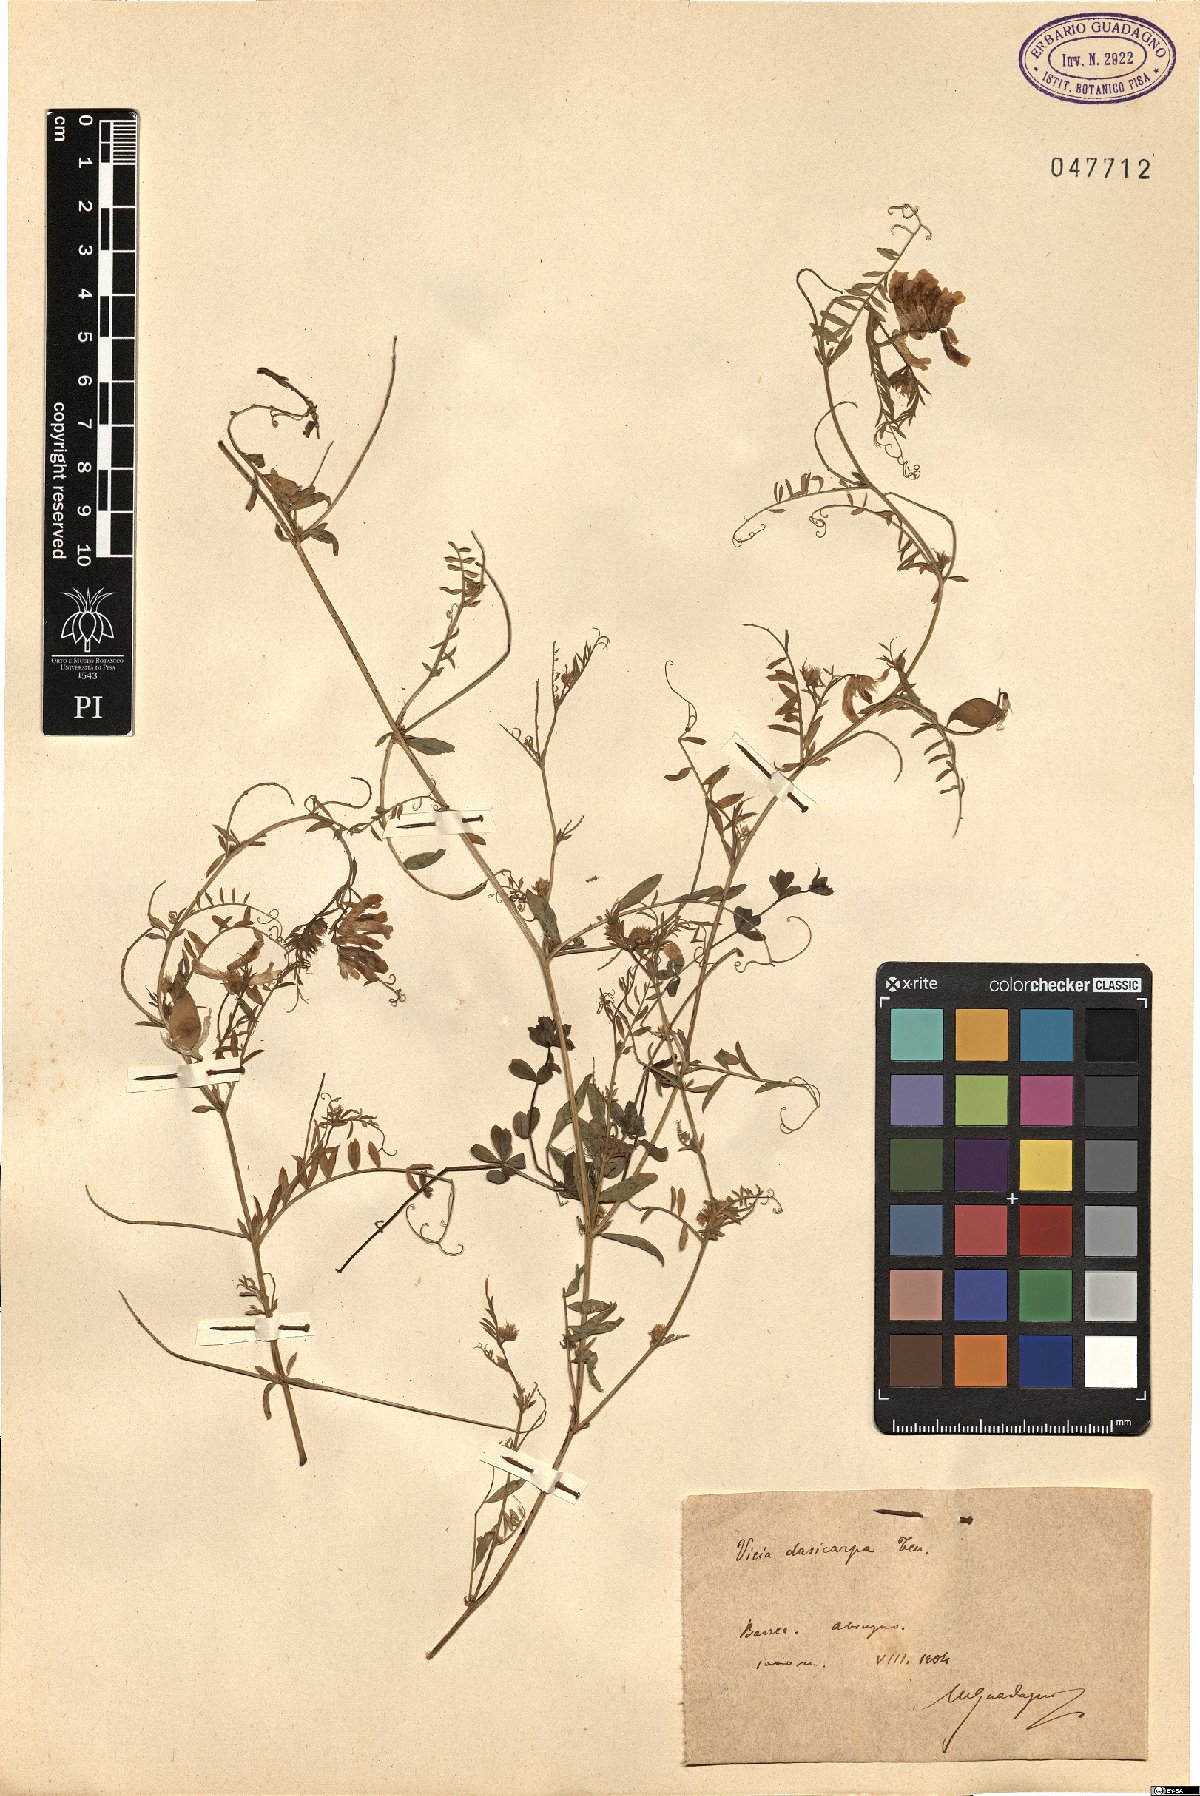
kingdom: Plantae
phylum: Tracheophyta
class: Magnoliopsida
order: Fabales
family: Fabaceae
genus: Vicia
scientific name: Vicia villosa
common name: Fodder vetch
